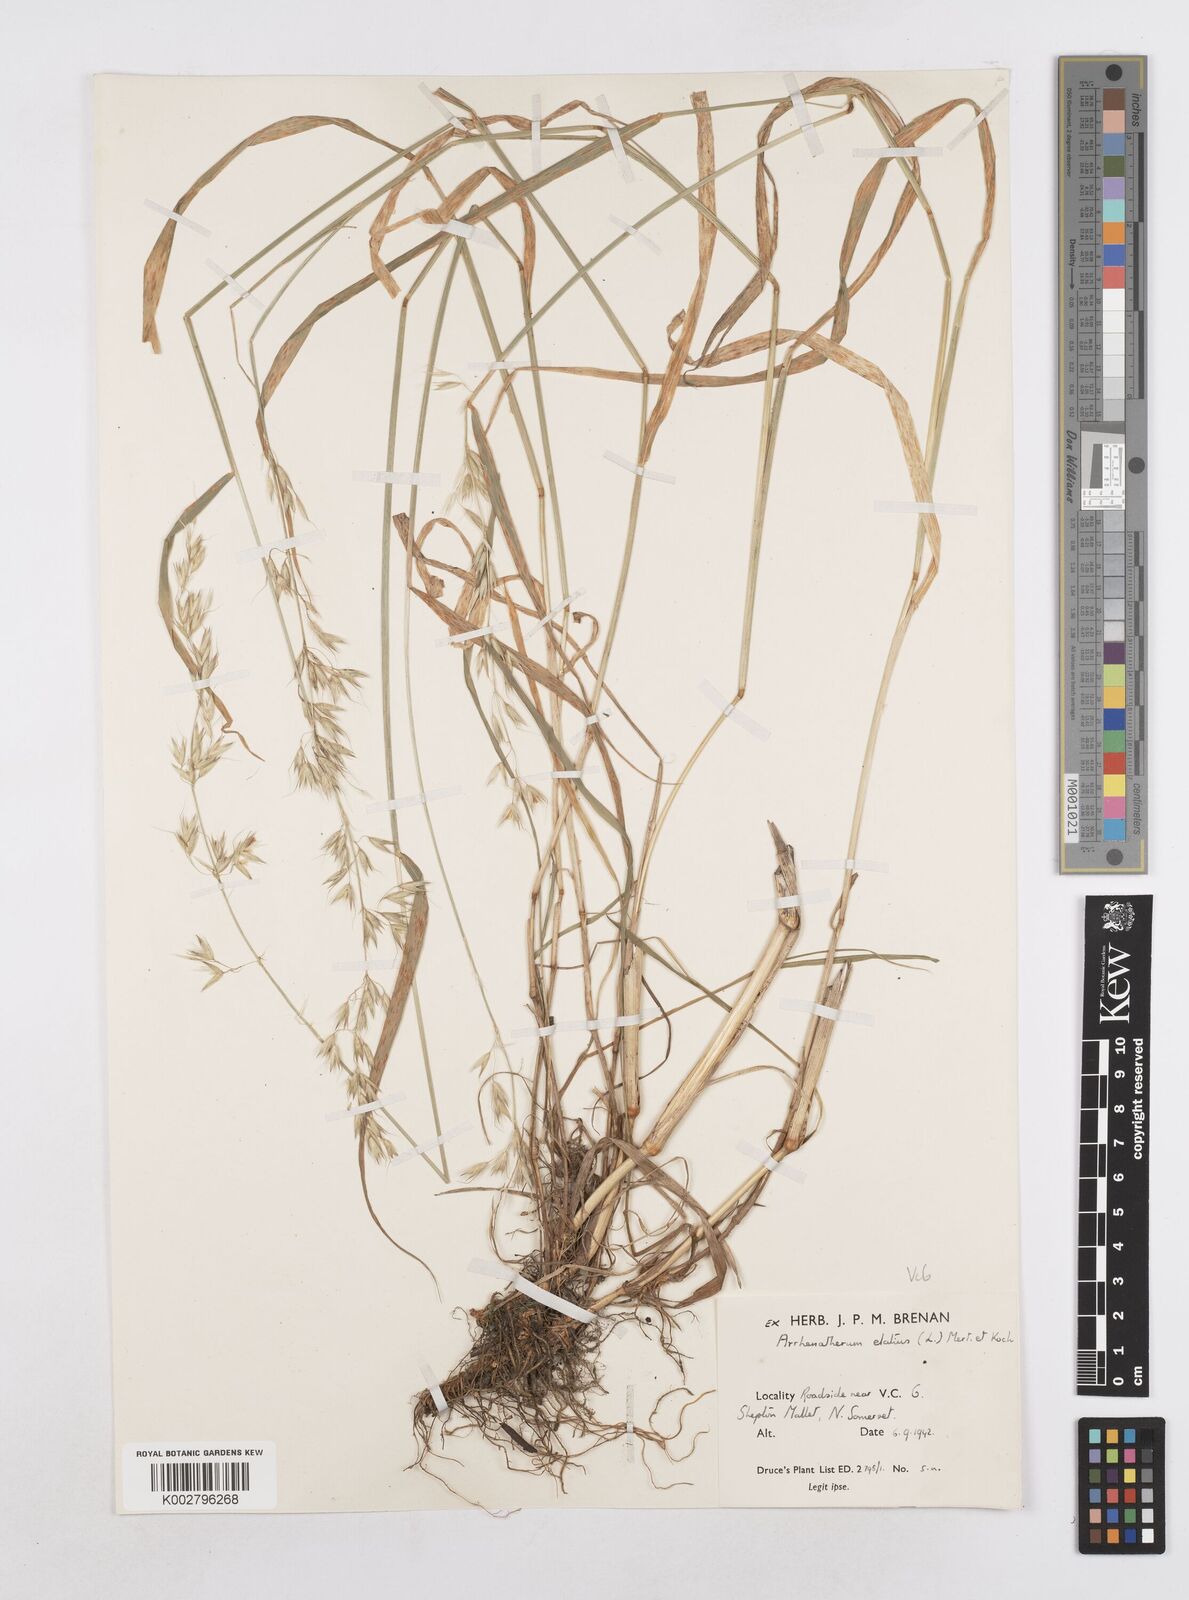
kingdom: Plantae
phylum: Tracheophyta
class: Liliopsida
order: Poales
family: Poaceae
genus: Arrhenatherum
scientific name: Arrhenatherum elatius
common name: Tall oatgrass
